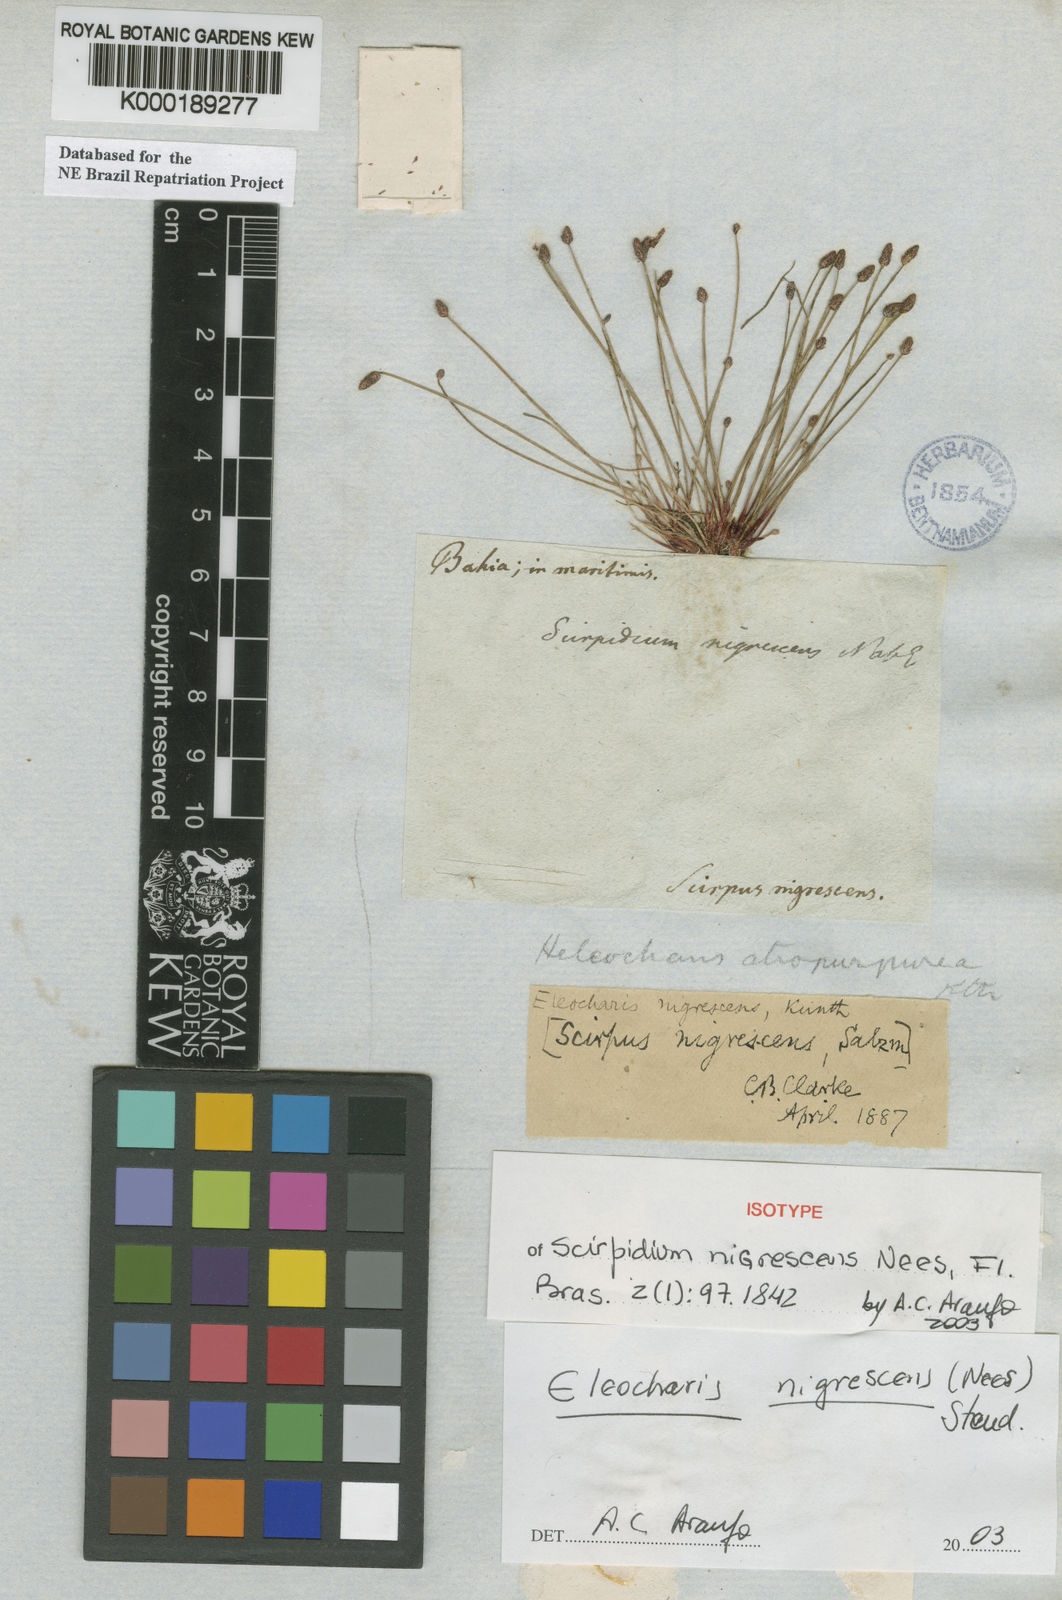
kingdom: Plantae
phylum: Tracheophyta
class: Liliopsida
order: Poales
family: Cyperaceae
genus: Eleocharis
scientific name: Eleocharis
